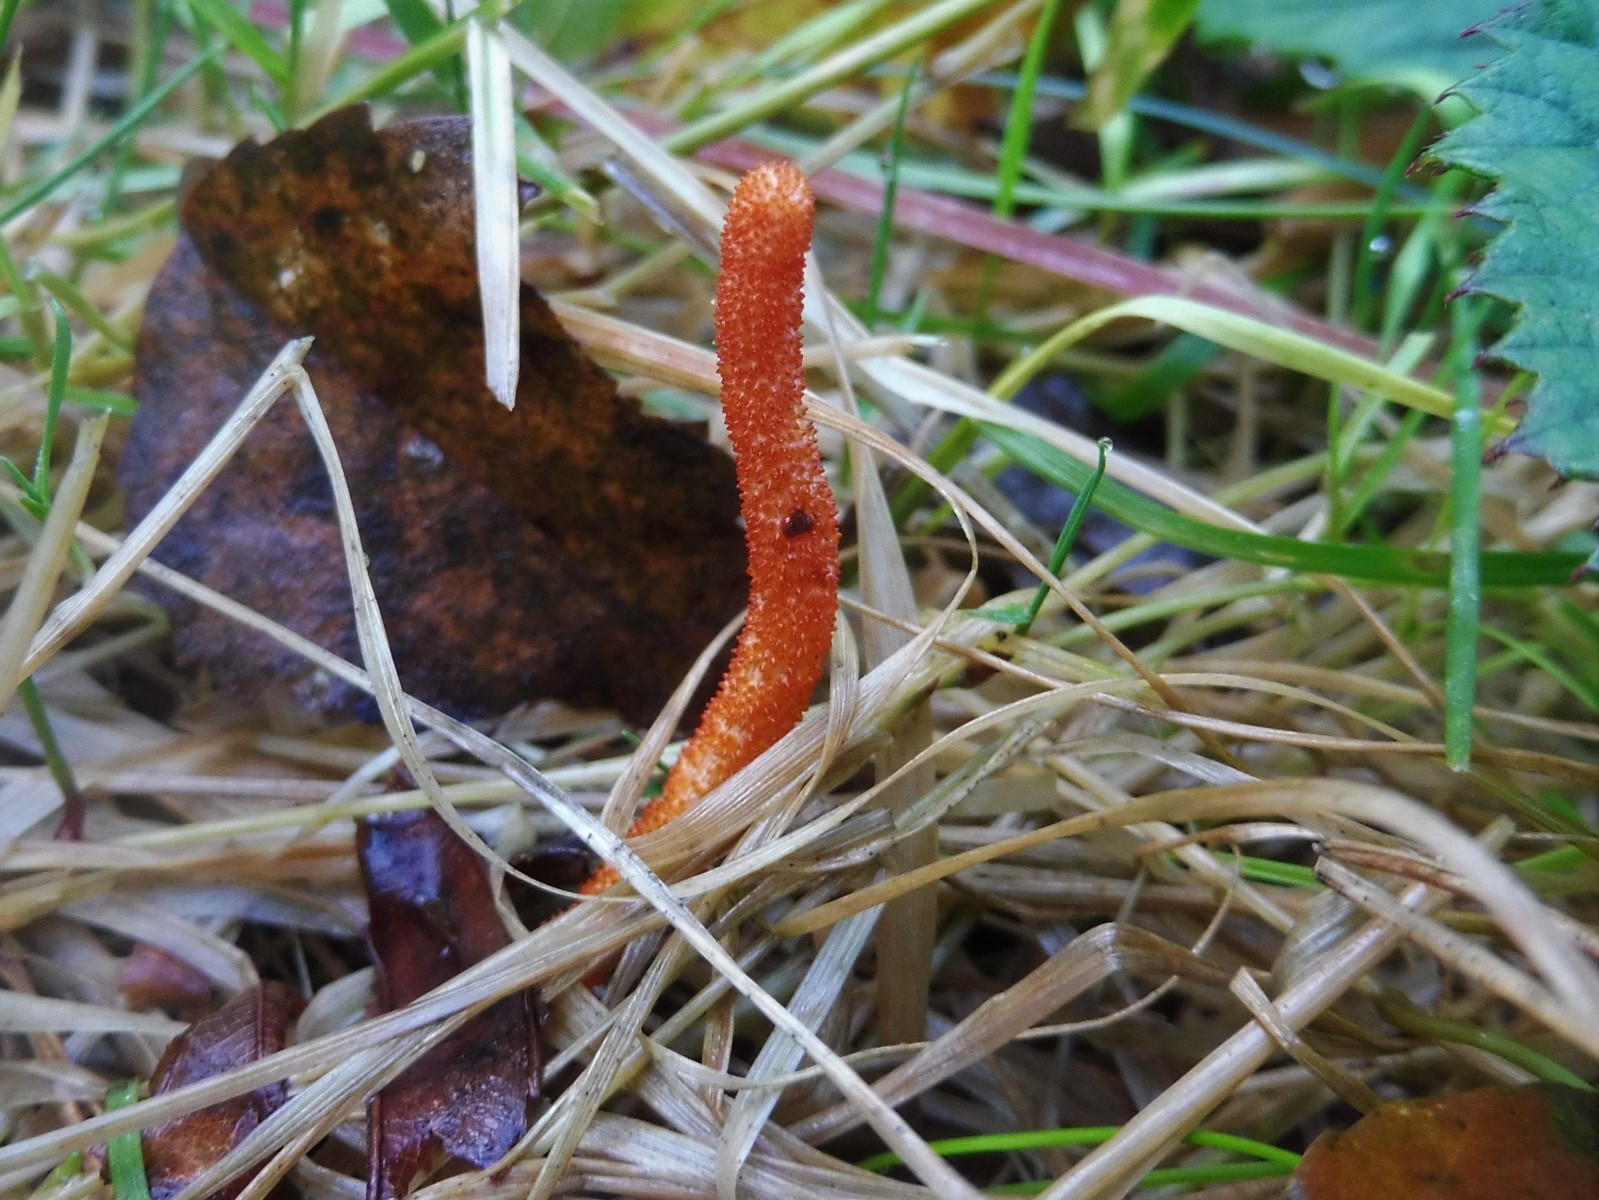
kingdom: Fungi
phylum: Ascomycota
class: Sordariomycetes
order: Hypocreales
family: Cordycipitaceae
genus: Cordyceps
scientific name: Cordyceps militaris
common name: puppe-snyltekølle
